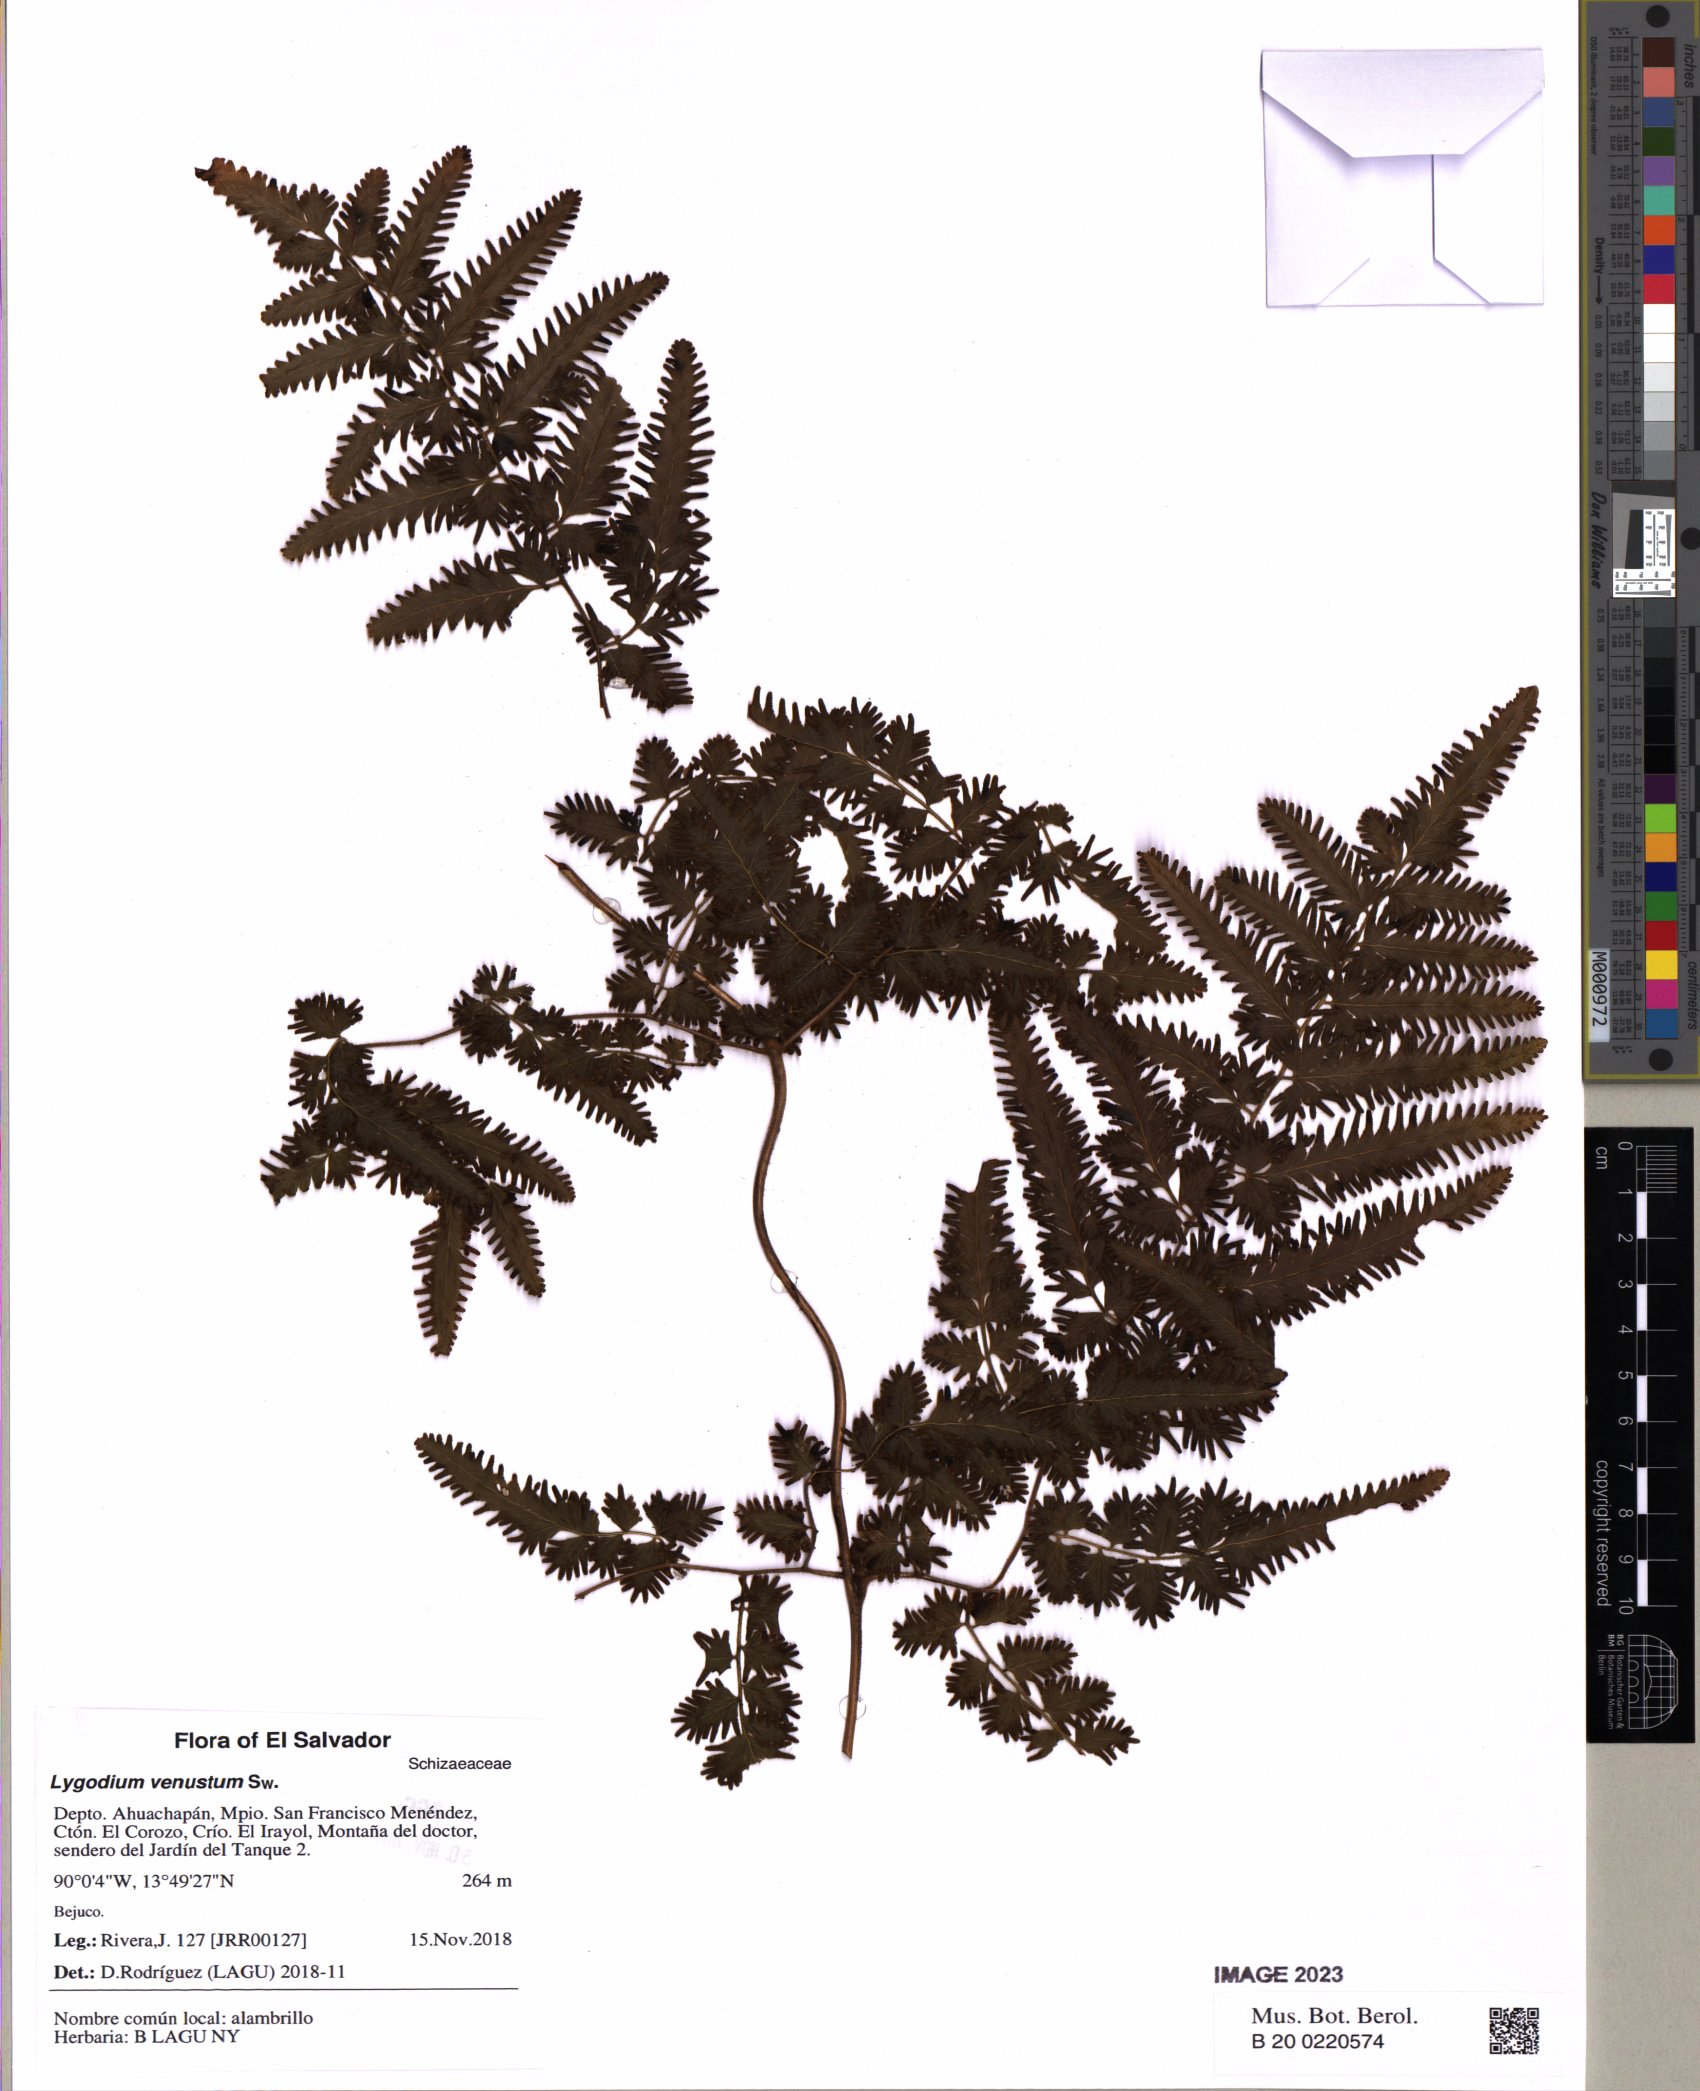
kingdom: Plantae
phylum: Tracheophyta
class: Polypodiopsida
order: Schizaeales
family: Lygodiaceae
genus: Lygodium
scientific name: Lygodium venustum
